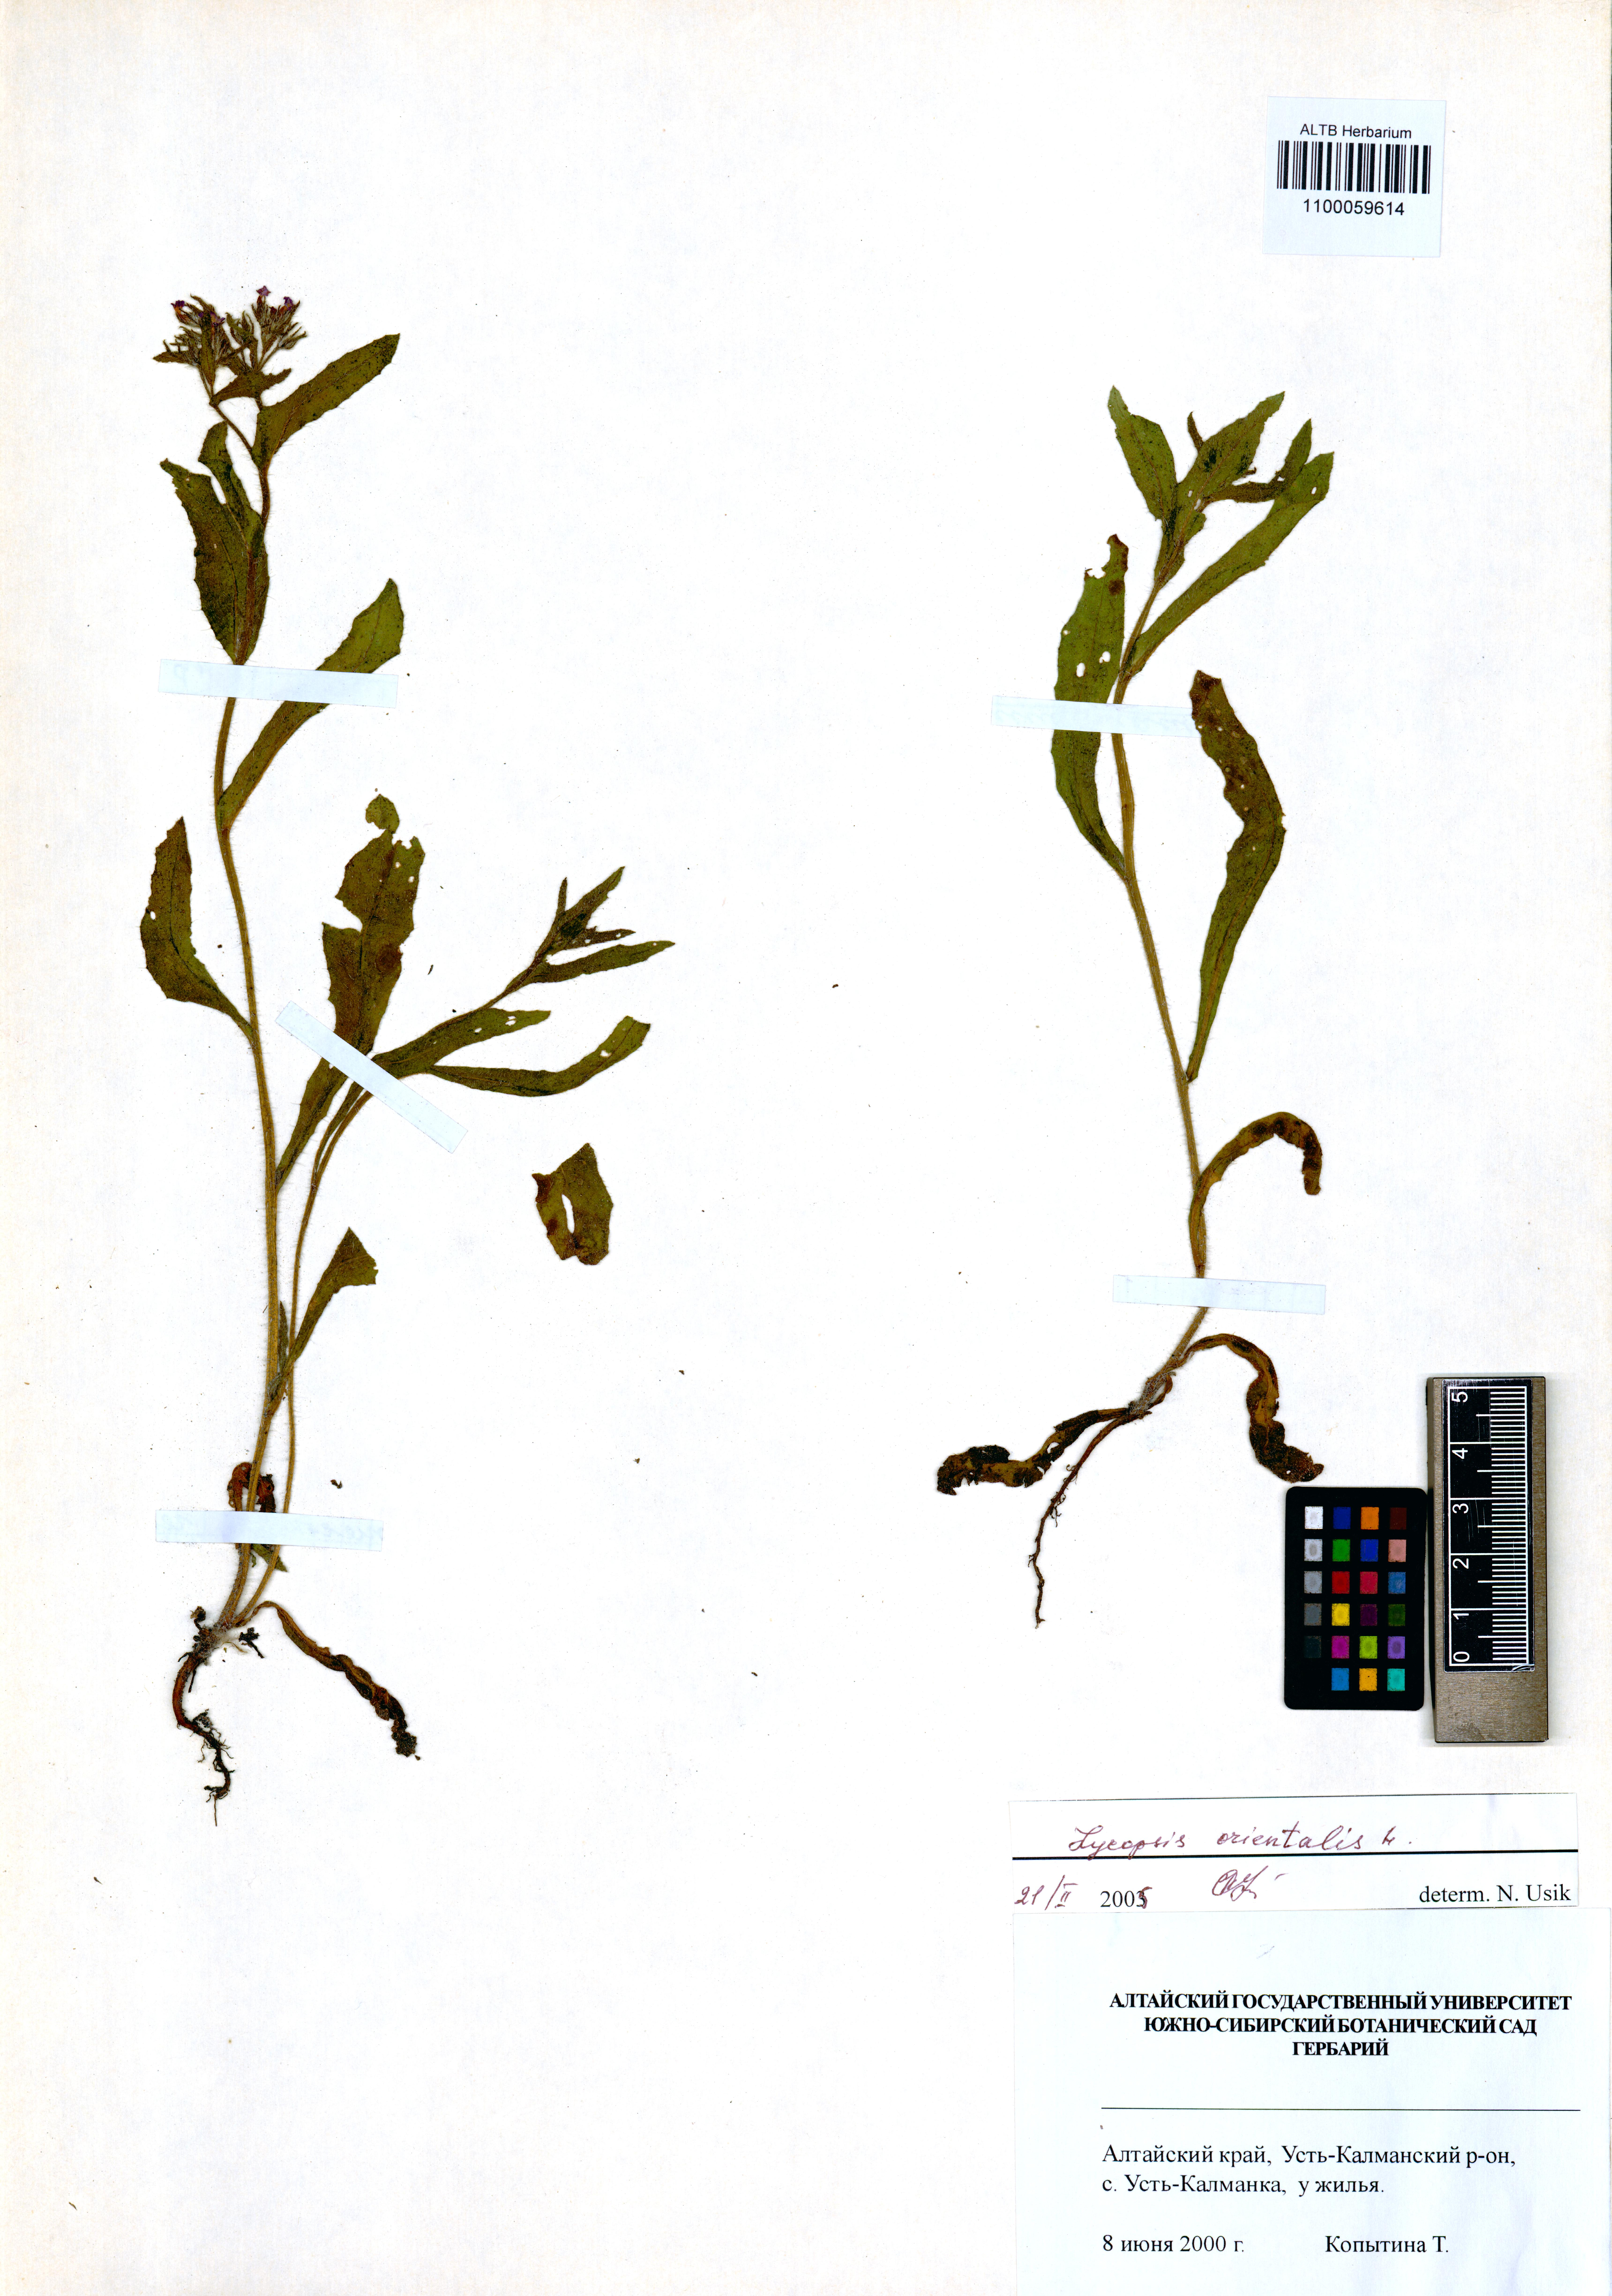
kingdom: Plantae
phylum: Tracheophyta
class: Magnoliopsida
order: Boraginales
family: Boraginaceae
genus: Lycopsis
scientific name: Lycopsis arvensis
